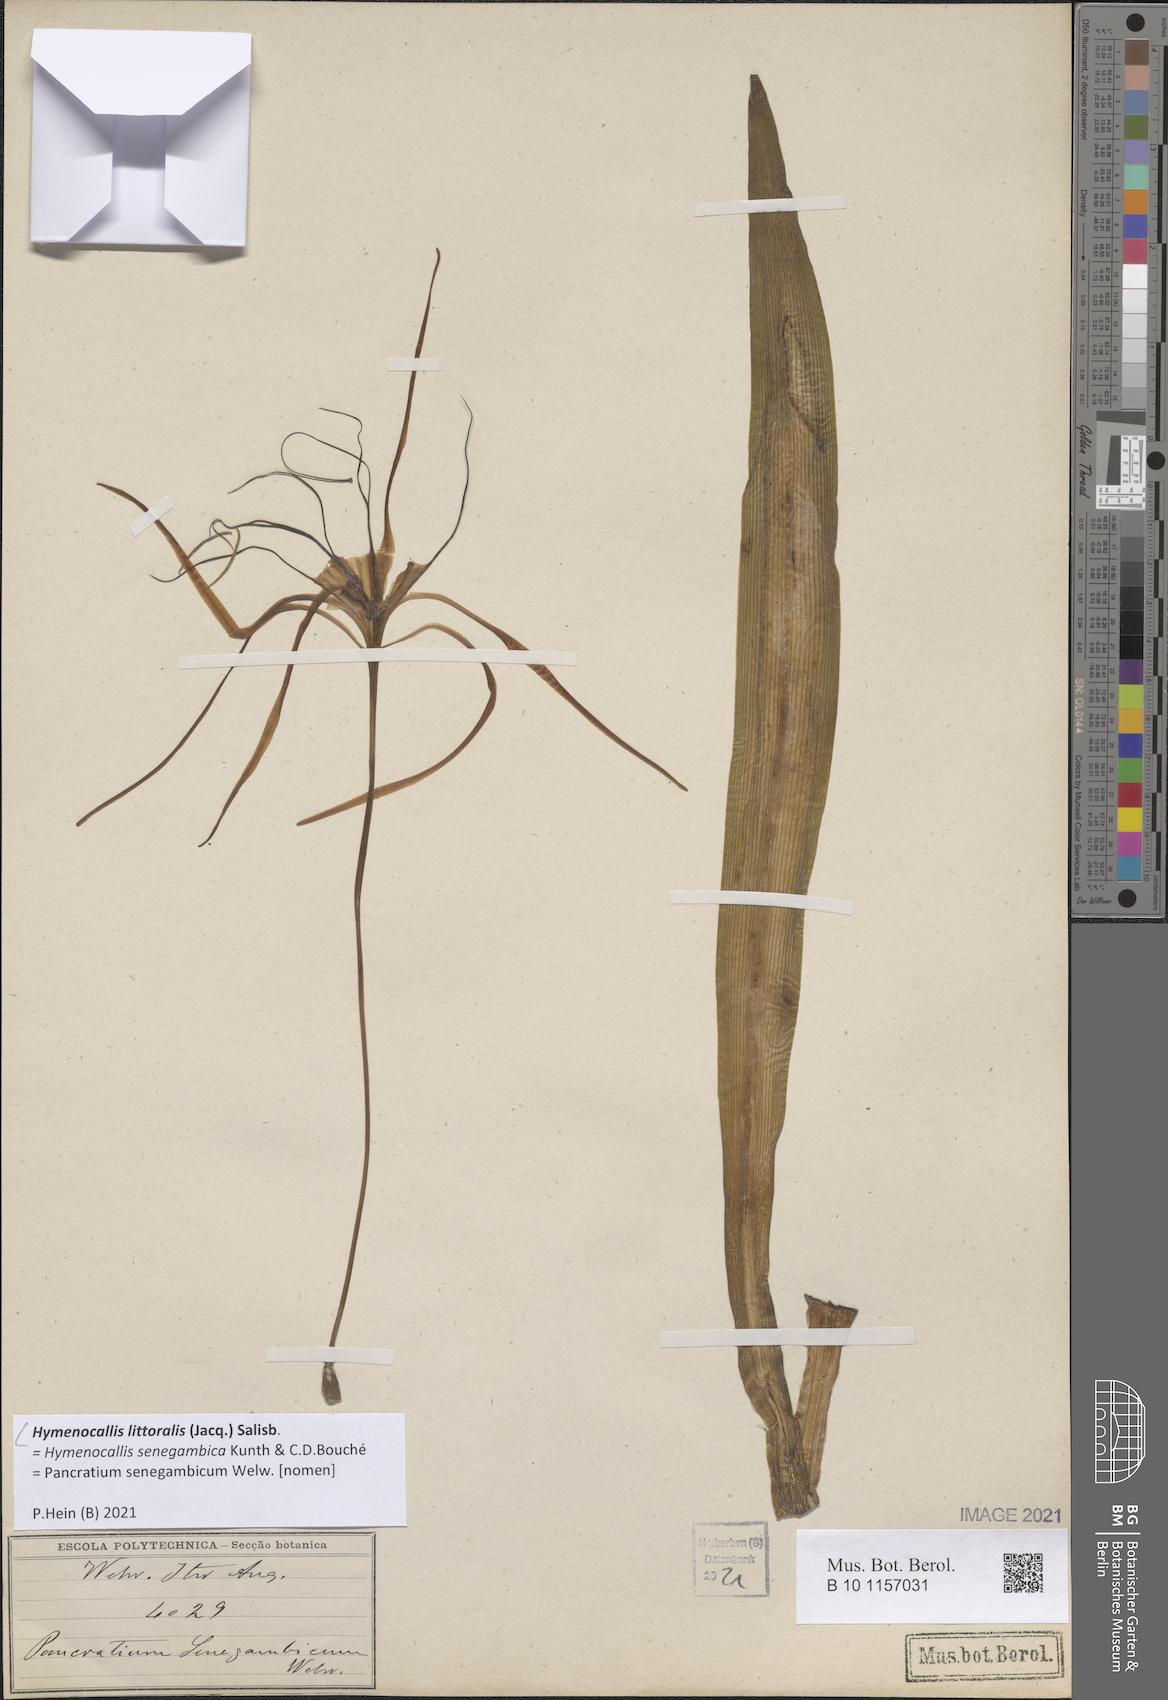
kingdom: Plantae
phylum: Tracheophyta
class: Liliopsida
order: Asparagales
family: Amaryllidaceae
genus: Hymenocallis
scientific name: Hymenocallis littoralis
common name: Beach spiderlily
